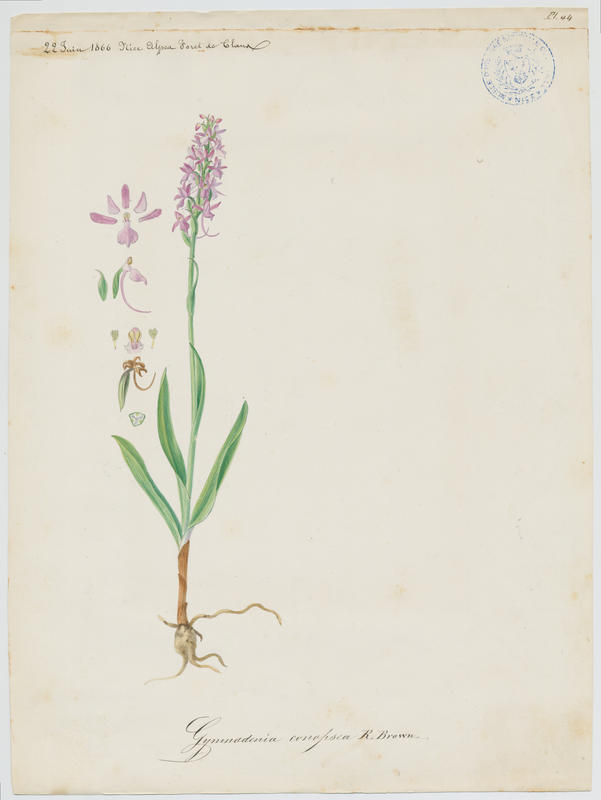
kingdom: Plantae
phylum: Tracheophyta
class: Liliopsida
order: Asparagales
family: Orchidaceae
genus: Gymnadenia
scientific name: Gymnadenia conopsea
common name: Fragrant orchid
